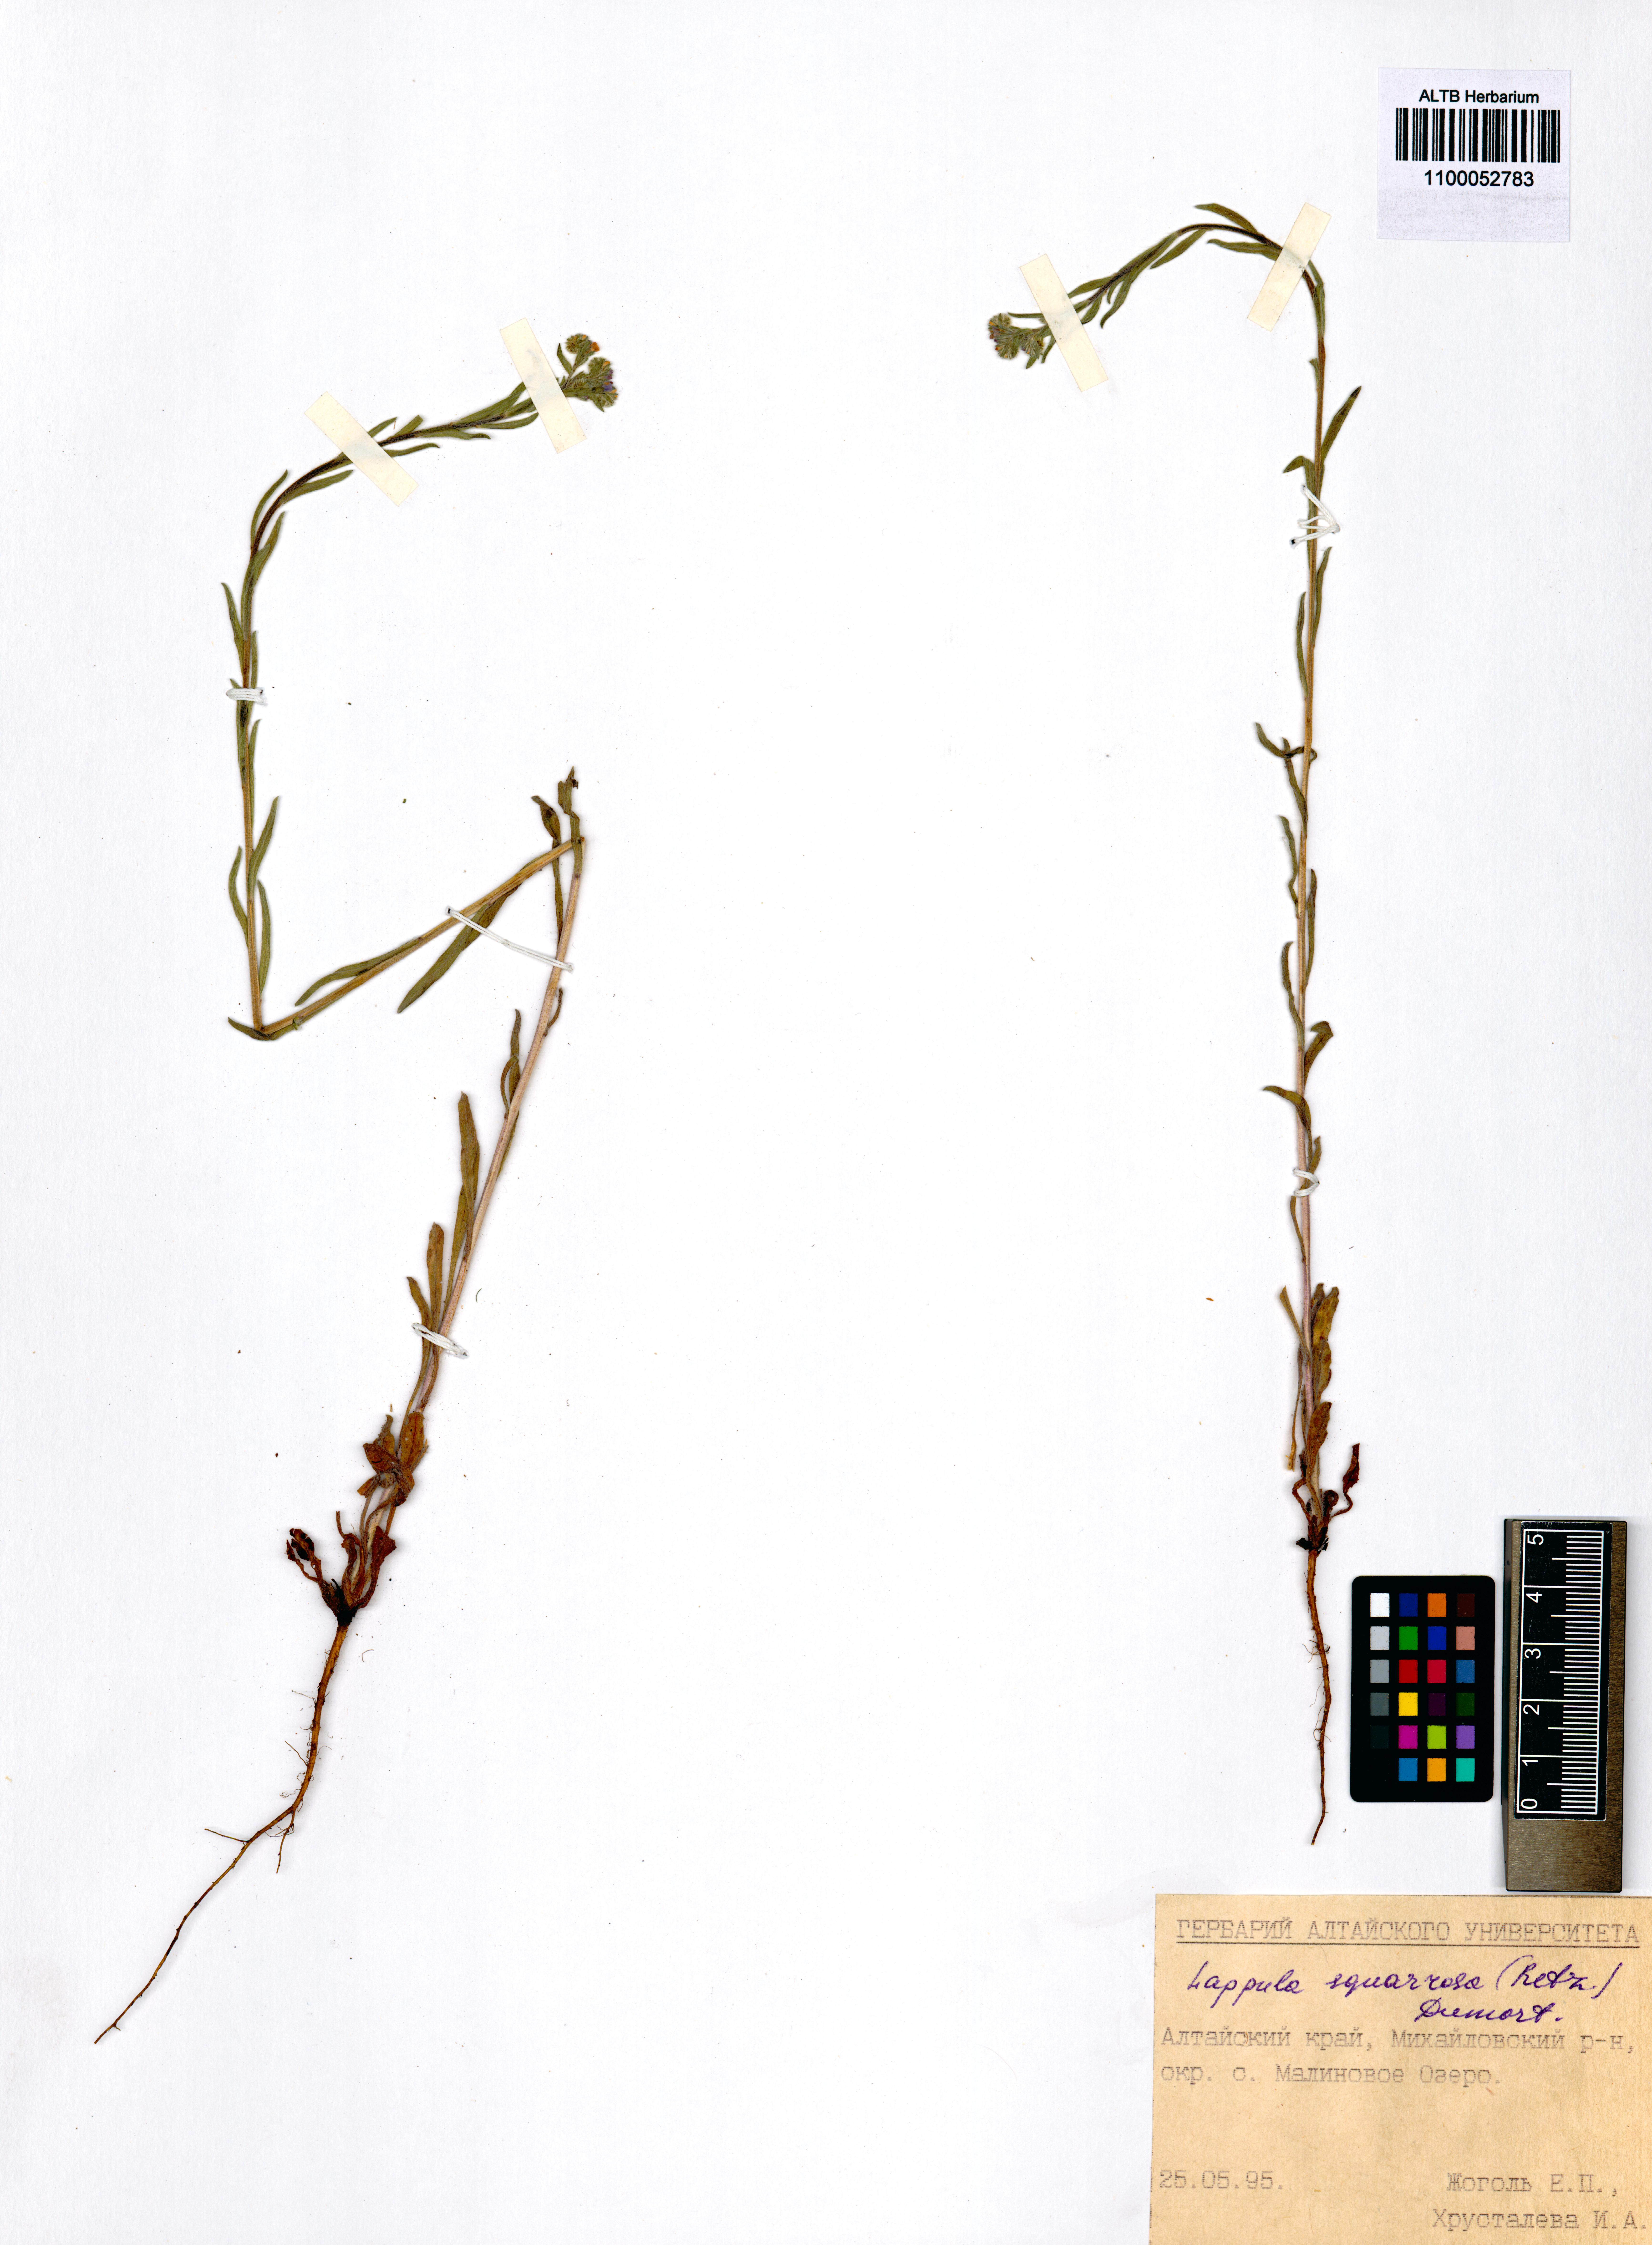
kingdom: Plantae
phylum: Tracheophyta
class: Magnoliopsida
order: Boraginales
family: Boraginaceae
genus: Lappula
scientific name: Lappula squarrosa
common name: European stickseed
